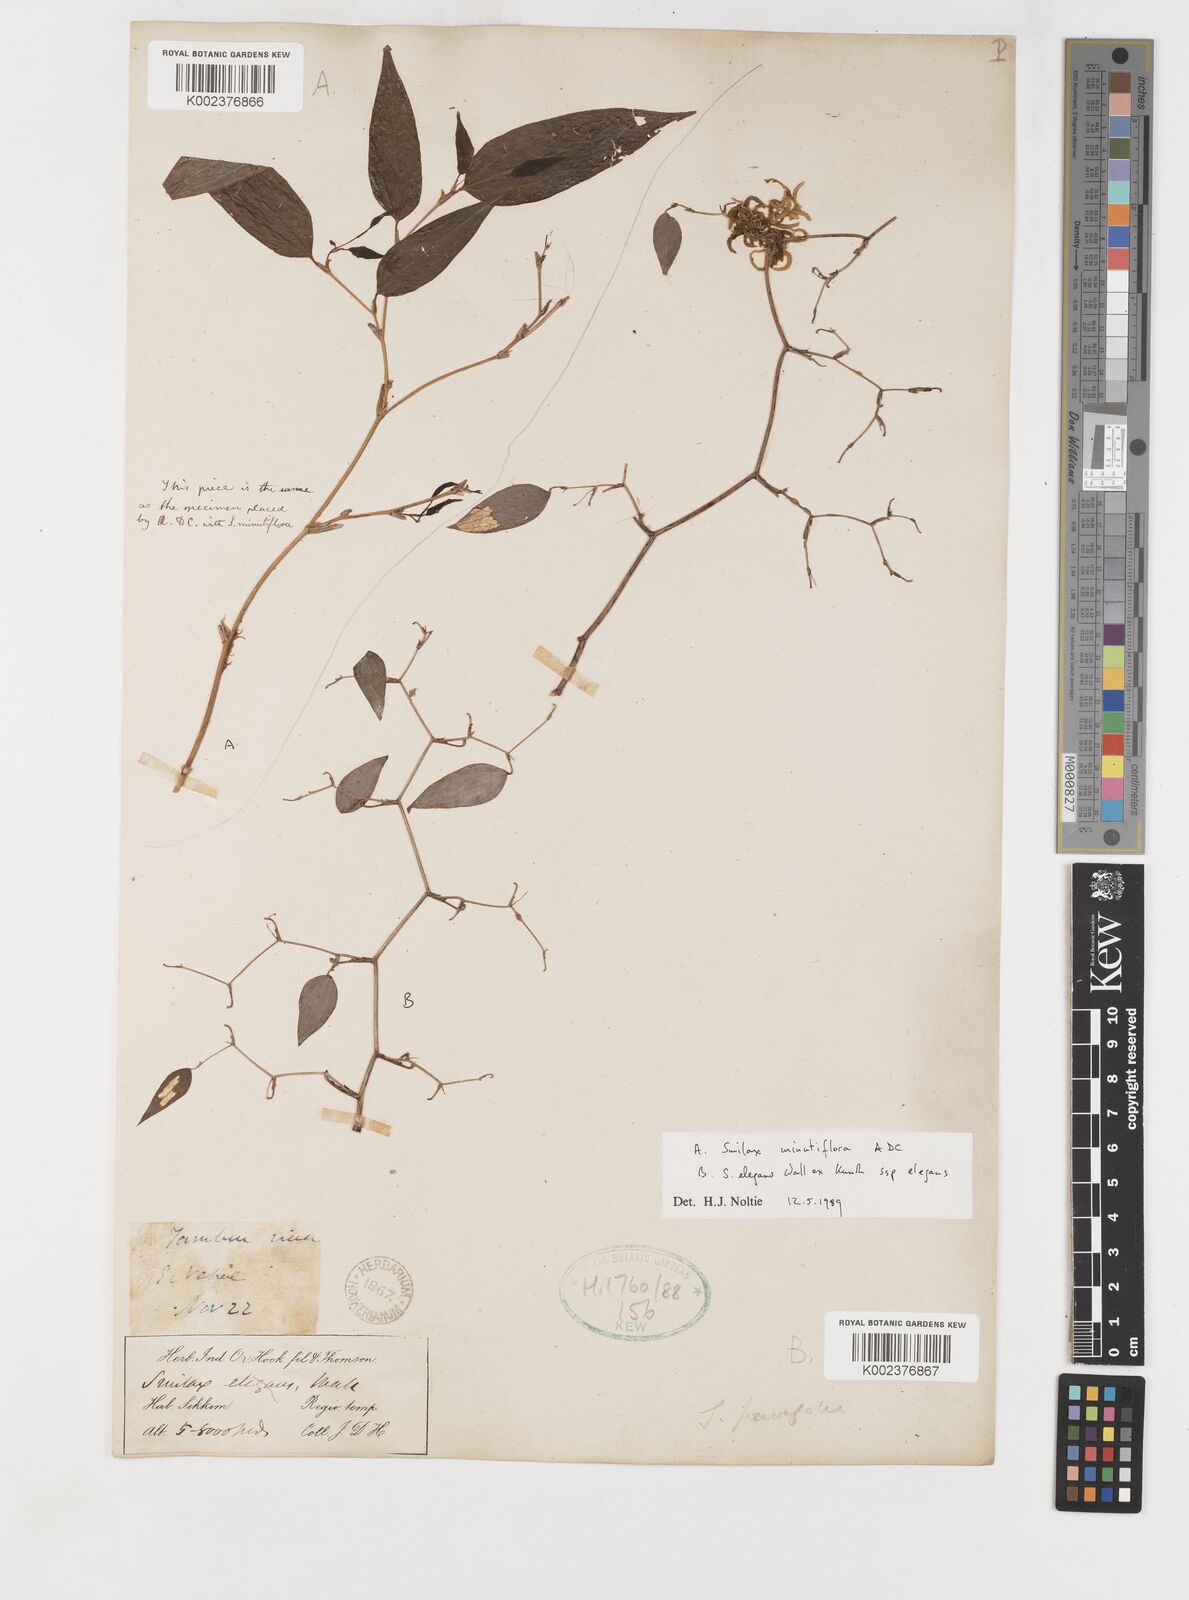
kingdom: Plantae
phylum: Tracheophyta
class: Liliopsida
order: Liliales
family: Smilacaceae
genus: Smilax
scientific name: Smilax elegans
